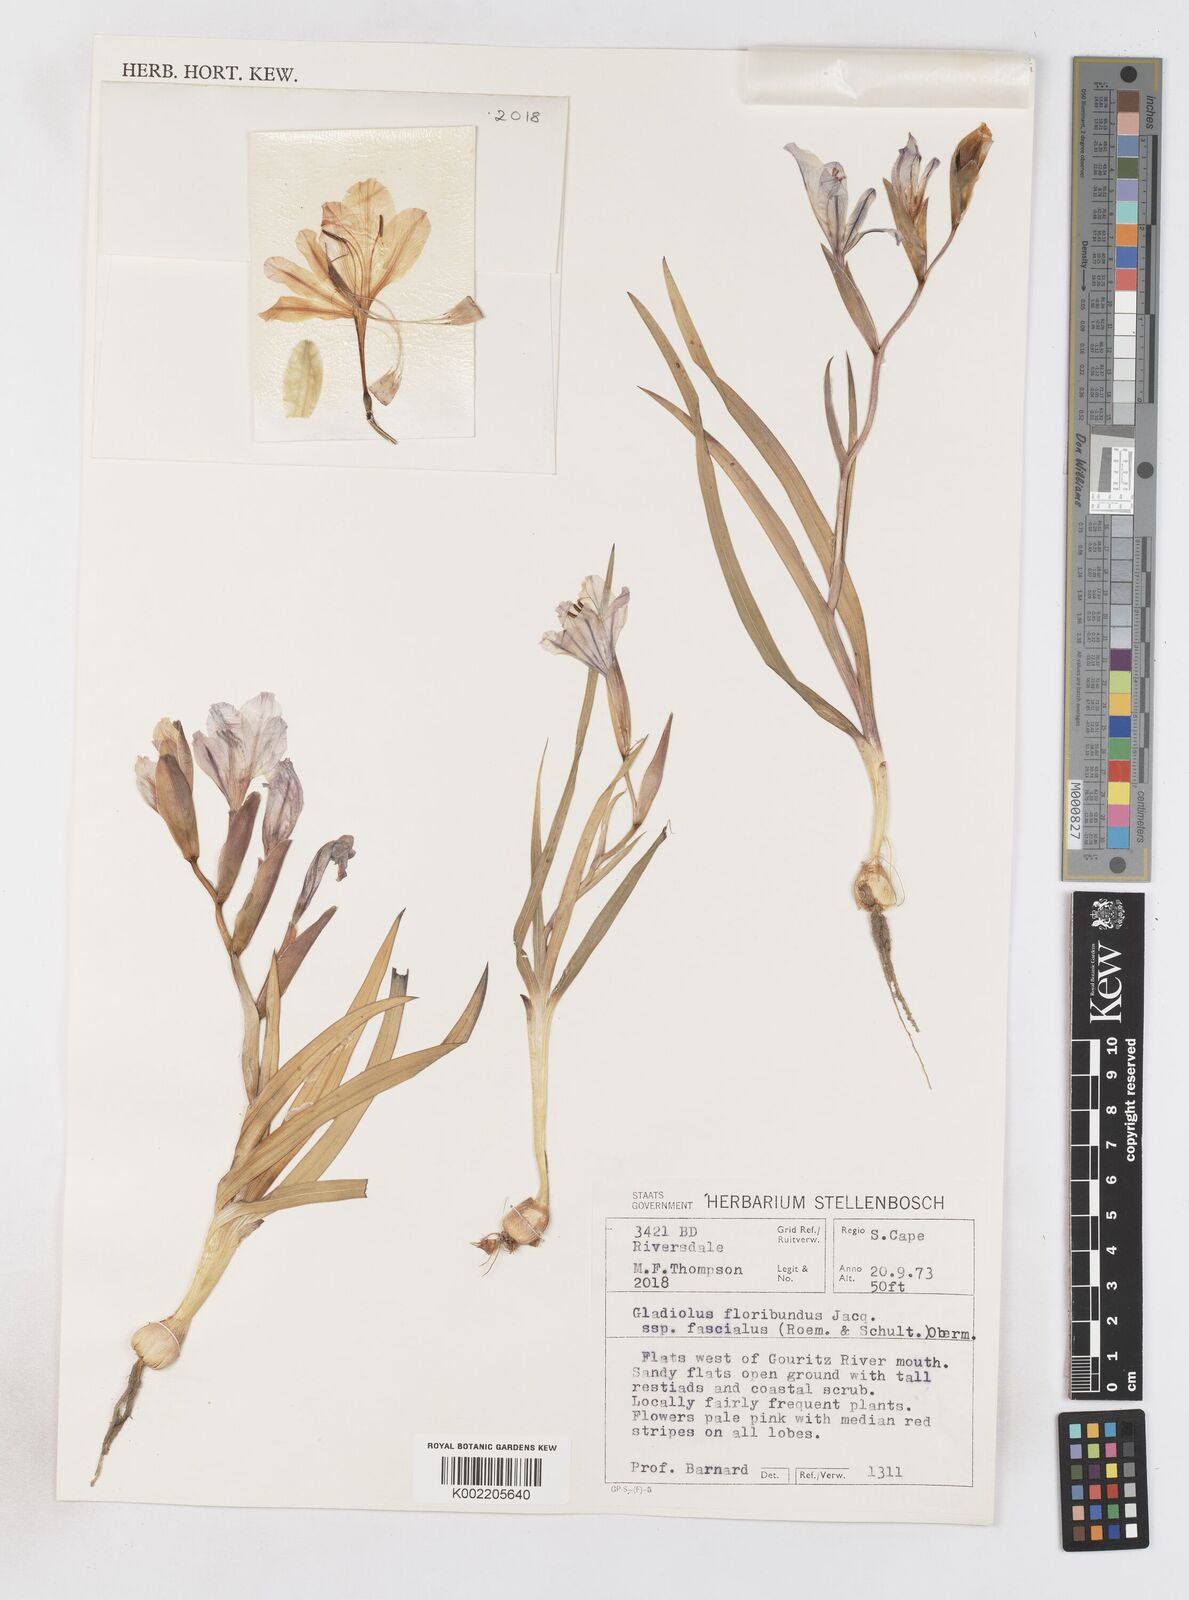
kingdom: Plantae
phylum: Tracheophyta
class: Liliopsida
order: Asparagales
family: Iridaceae
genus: Gladiolus
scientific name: Gladiolus grandiflorus
